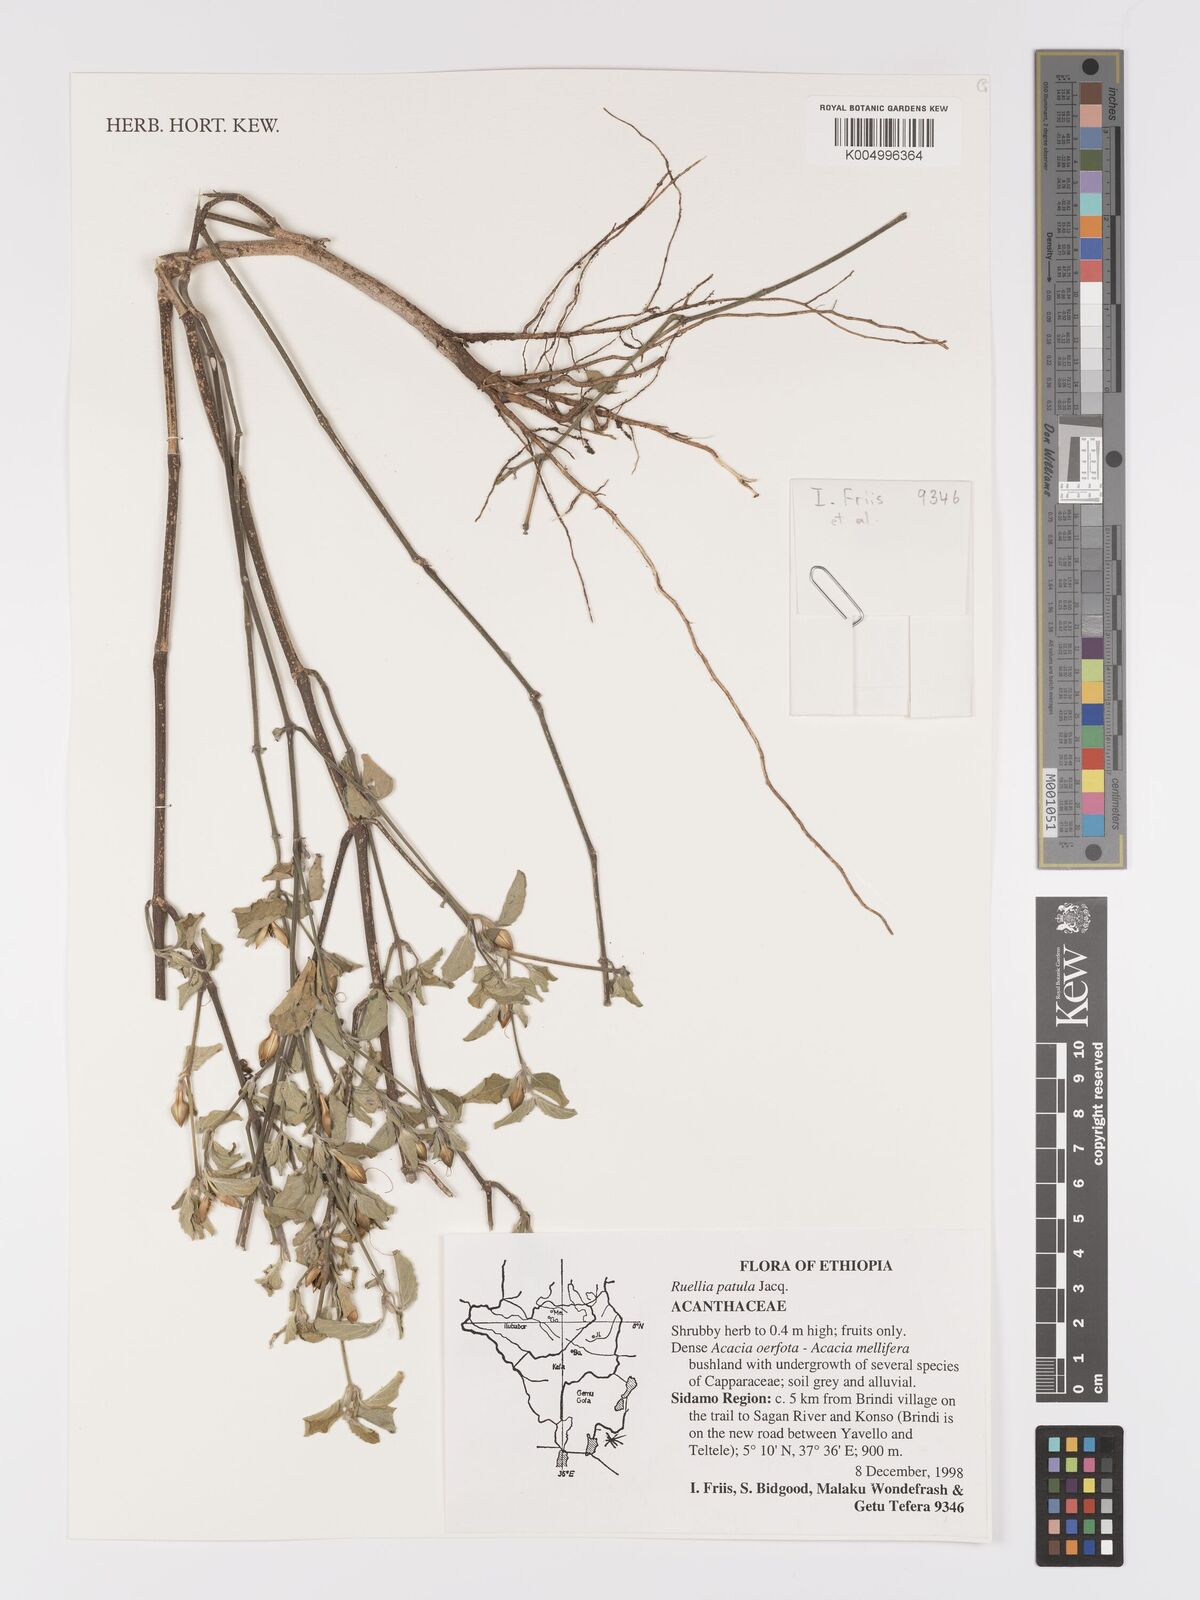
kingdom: Plantae
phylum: Tracheophyta
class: Magnoliopsida
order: Lamiales
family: Acanthaceae
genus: Ruellia
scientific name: Ruellia patula
